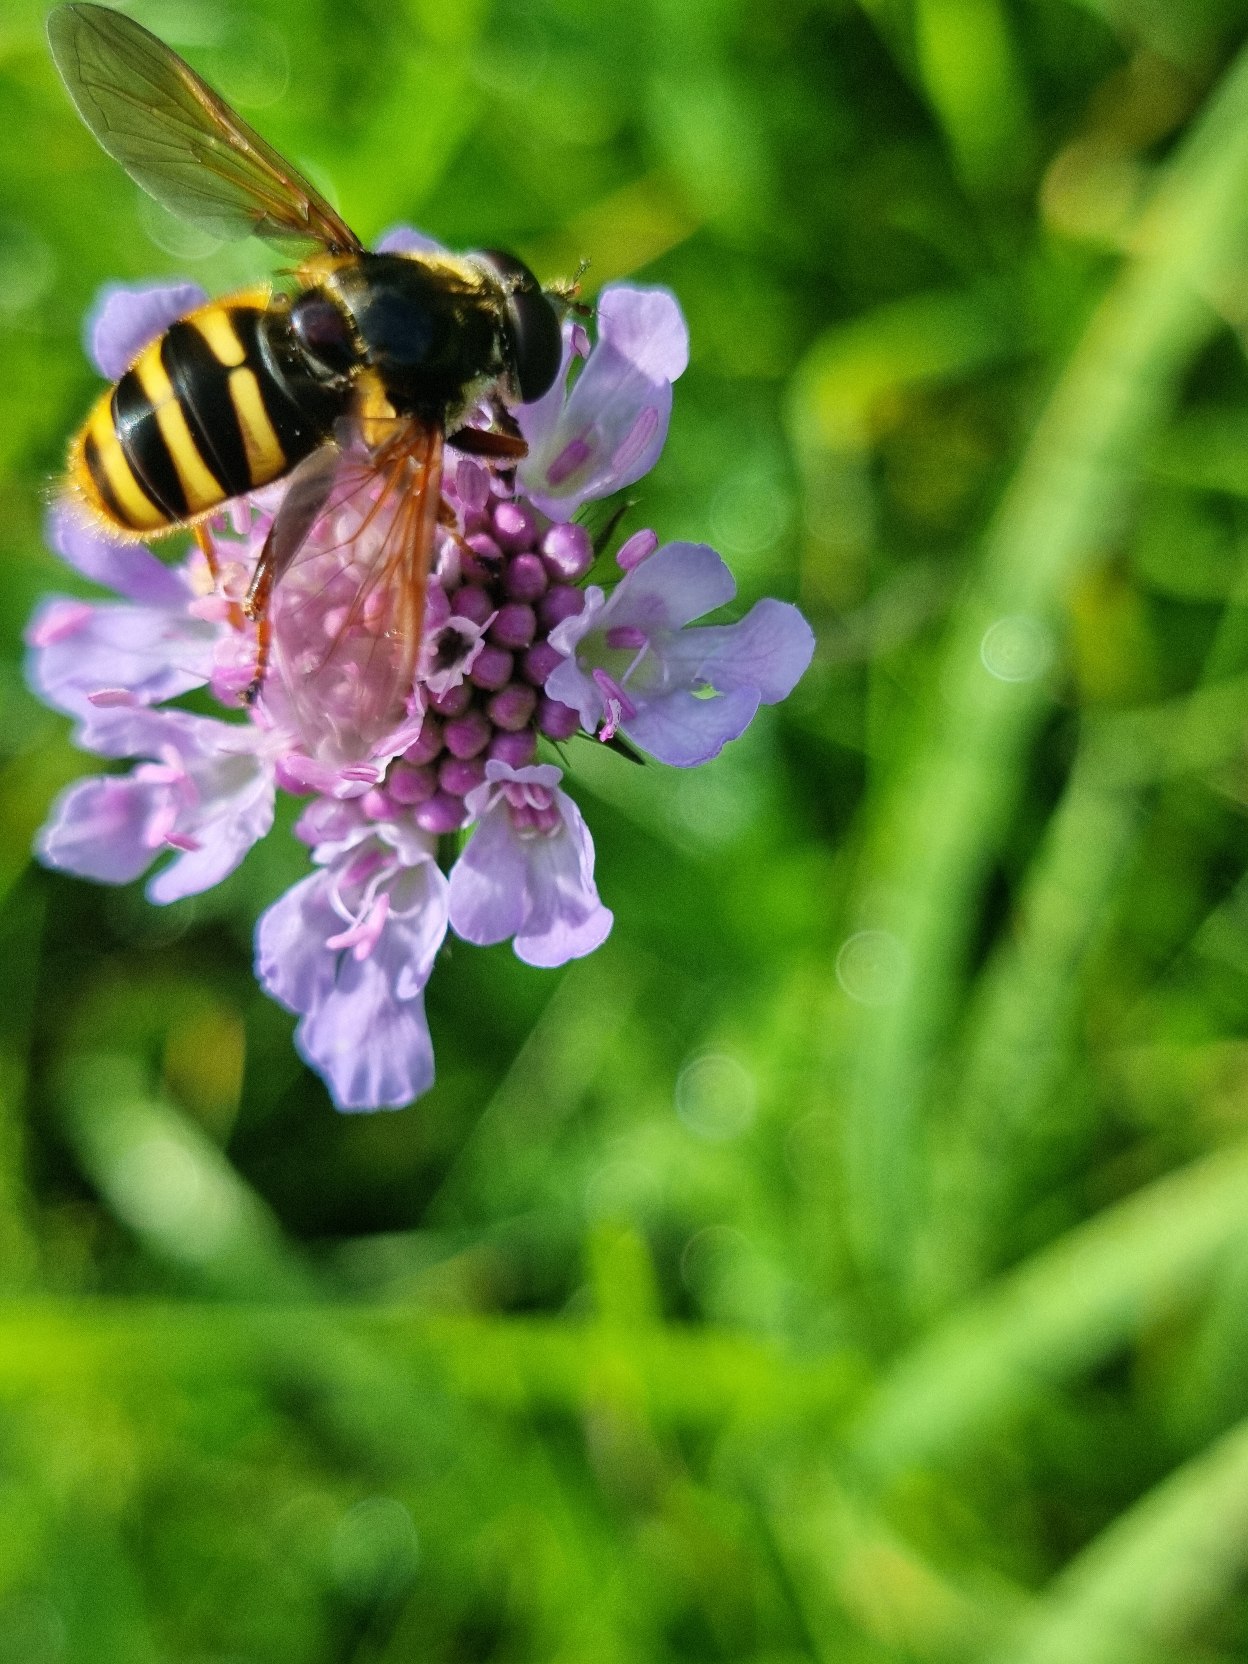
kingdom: Animalia
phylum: Arthropoda
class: Insecta
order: Diptera
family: Syrphidae
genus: Sericomyia
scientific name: Sericomyia silentis
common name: Tørve-silkesvirreflue
